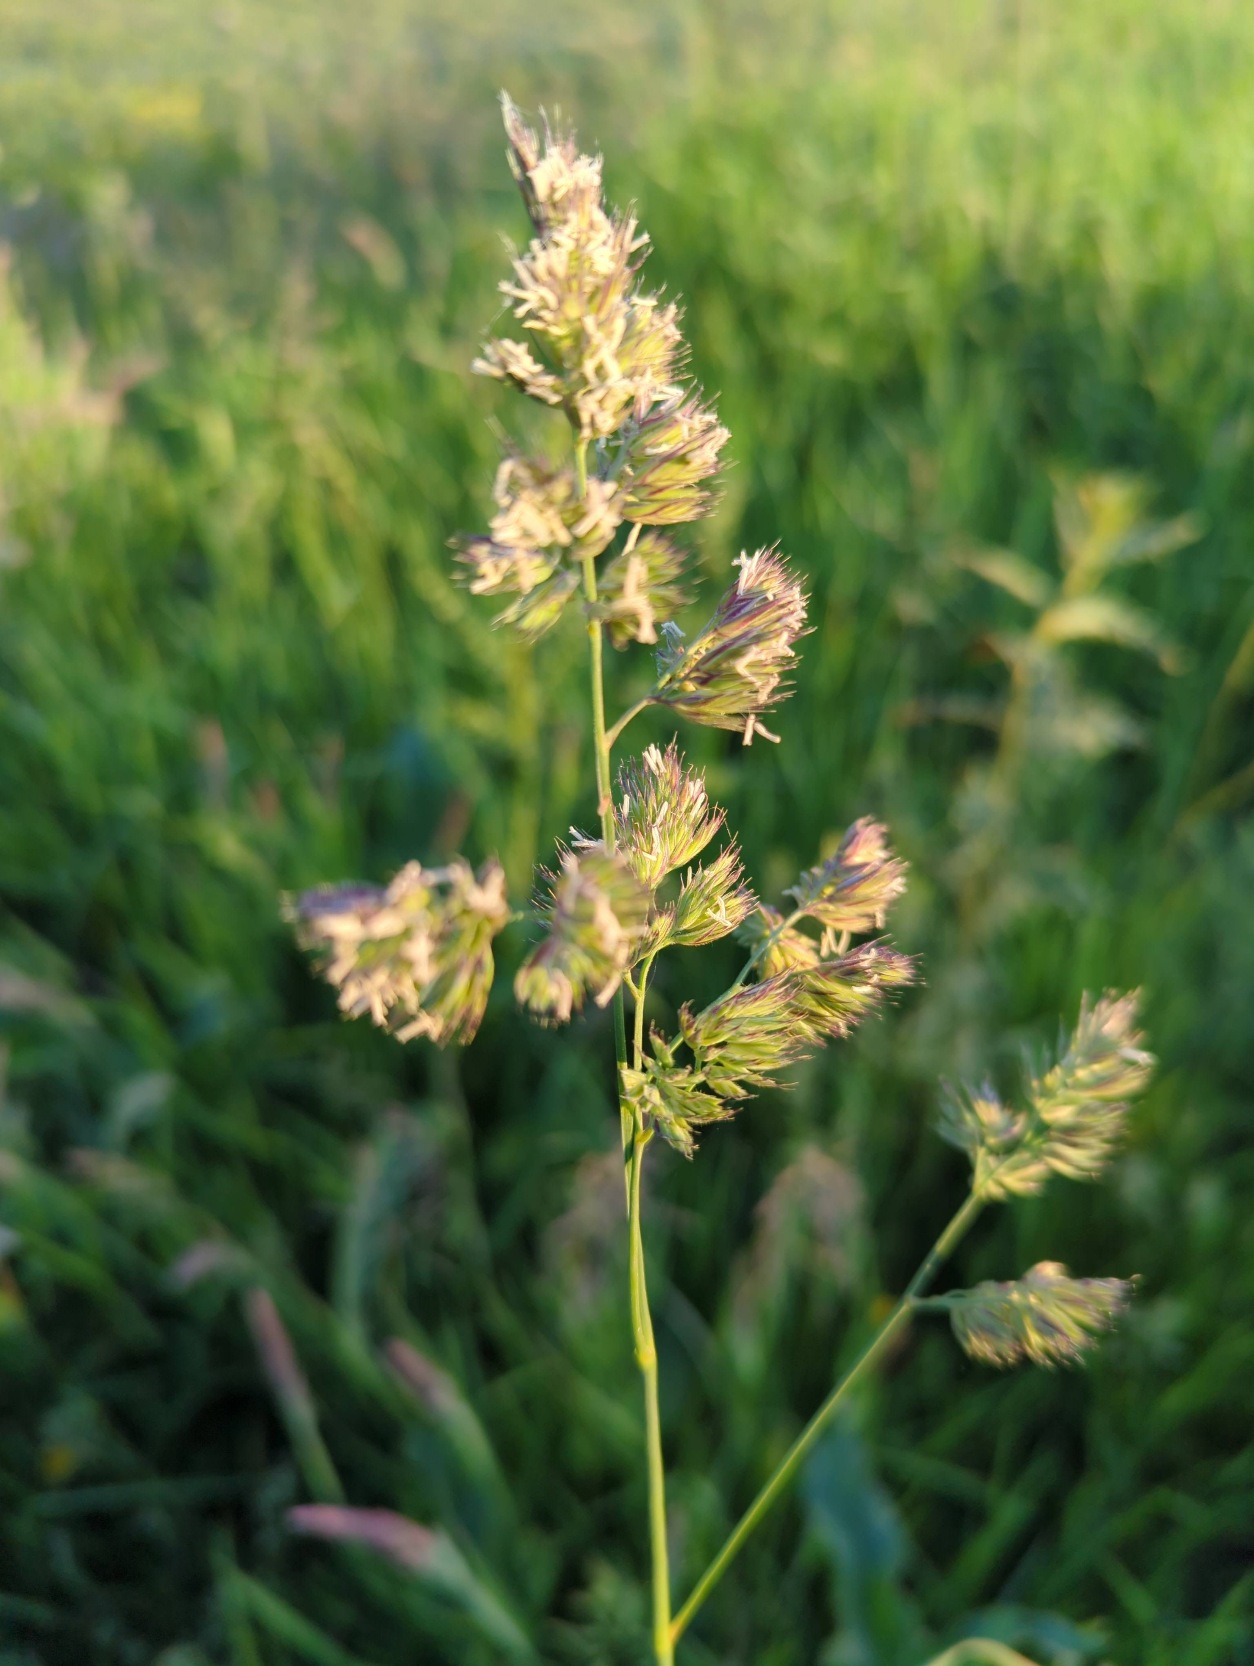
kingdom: Plantae
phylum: Tracheophyta
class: Liliopsida
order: Poales
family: Poaceae
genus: Dactylis
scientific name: Dactylis glomerata
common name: Almindelig hundegræs
